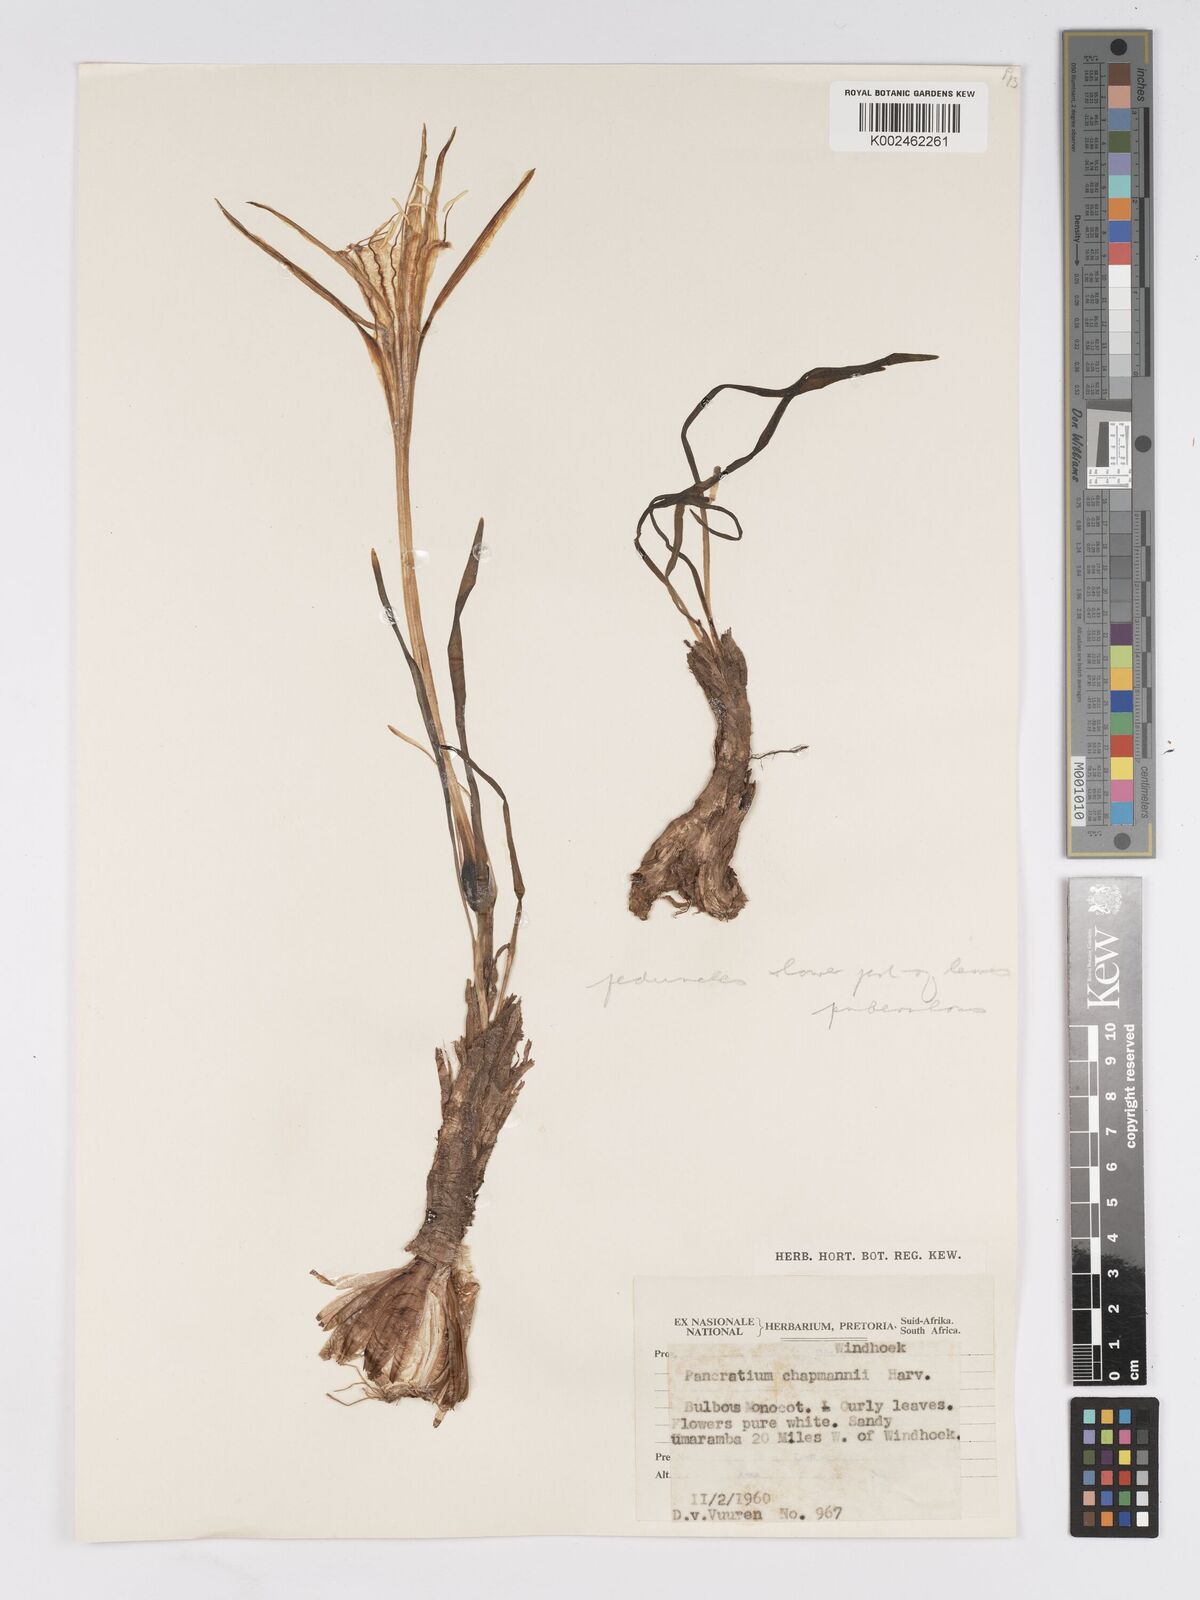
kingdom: Plantae
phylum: Tracheophyta
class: Liliopsida
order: Asparagales
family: Amaryllidaceae
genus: Pancratium
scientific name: Pancratium tenuifolium
